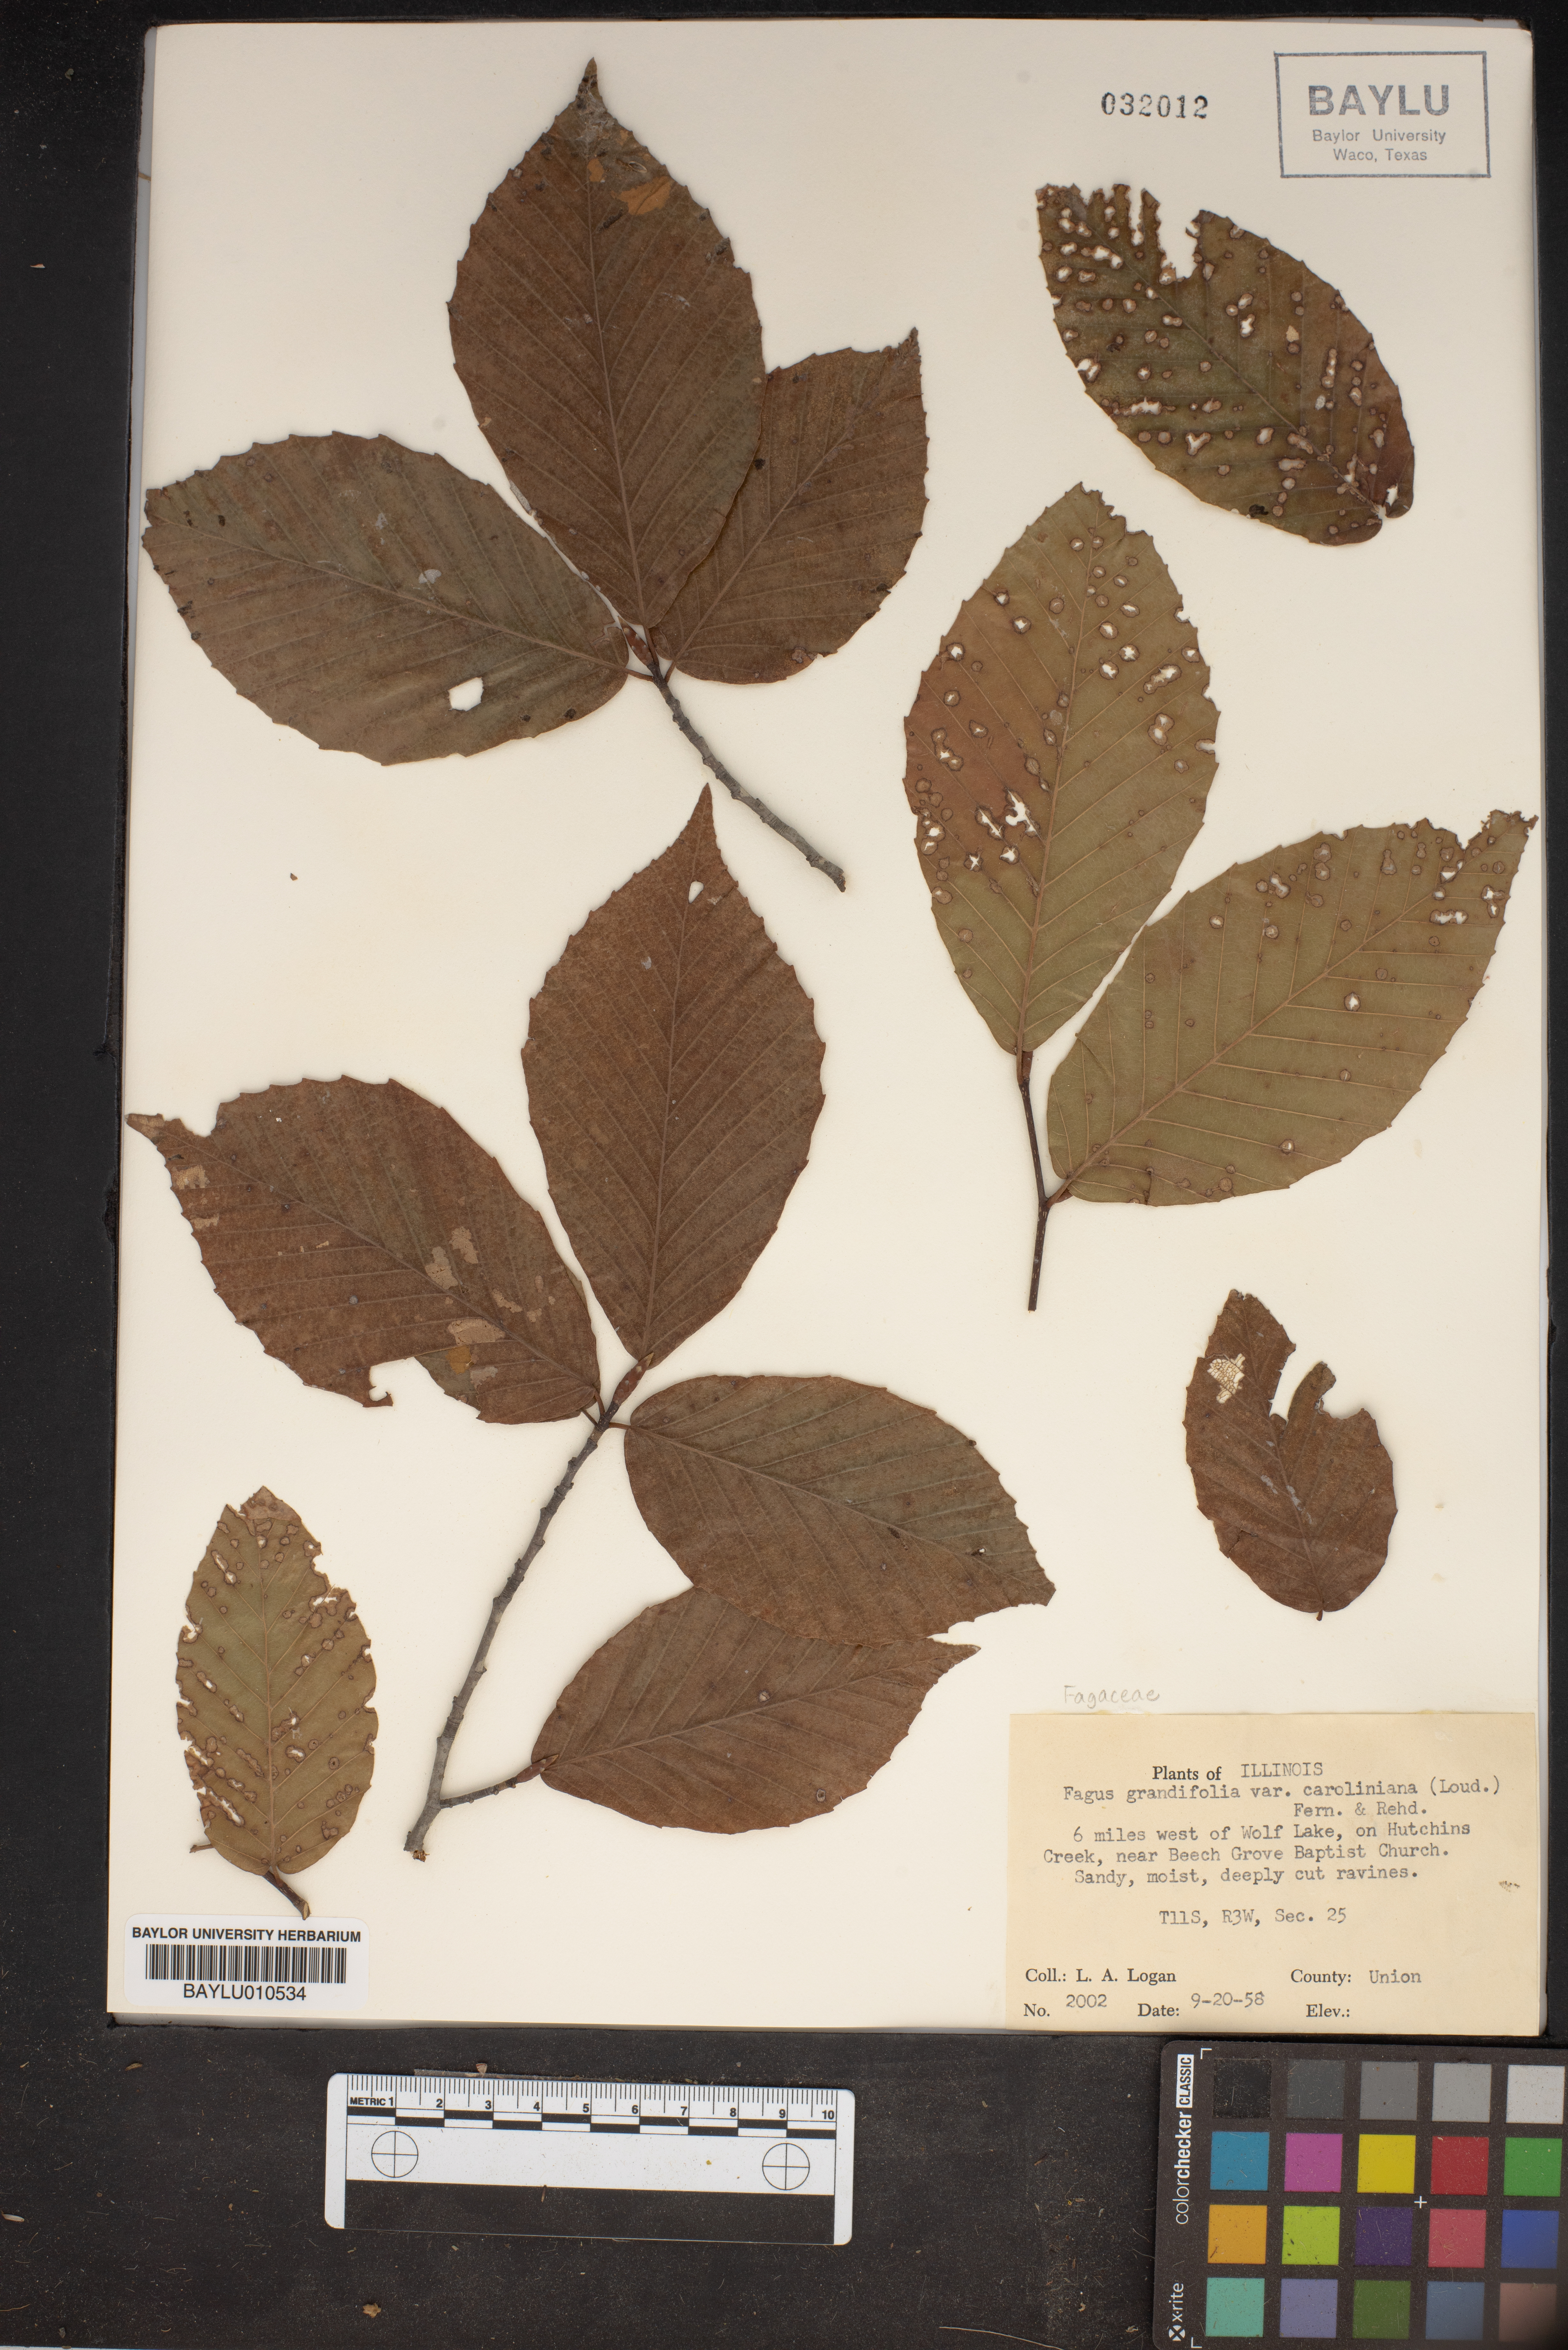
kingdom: Plantae
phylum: Tracheophyta
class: Magnoliopsida
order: Fagales
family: Fagaceae
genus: Fagus
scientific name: Fagus grandifolia
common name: American beech
